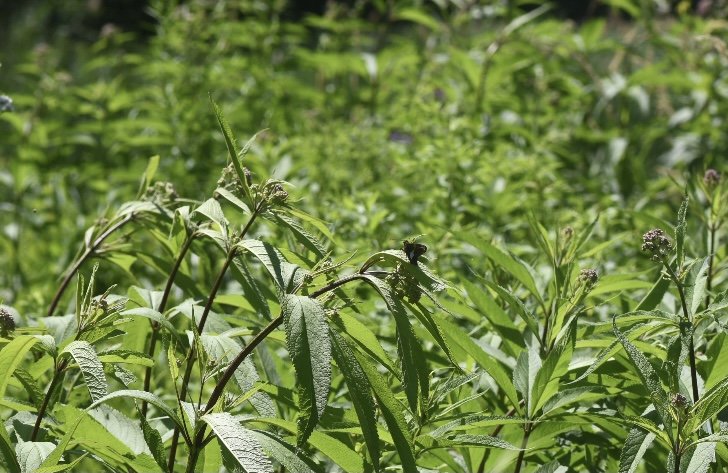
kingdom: Animalia
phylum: Arthropoda
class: Insecta
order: Lepidoptera
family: Hesperiidae
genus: Epargyreus
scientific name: Epargyreus clarus
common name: Silver-spotted Skipper
